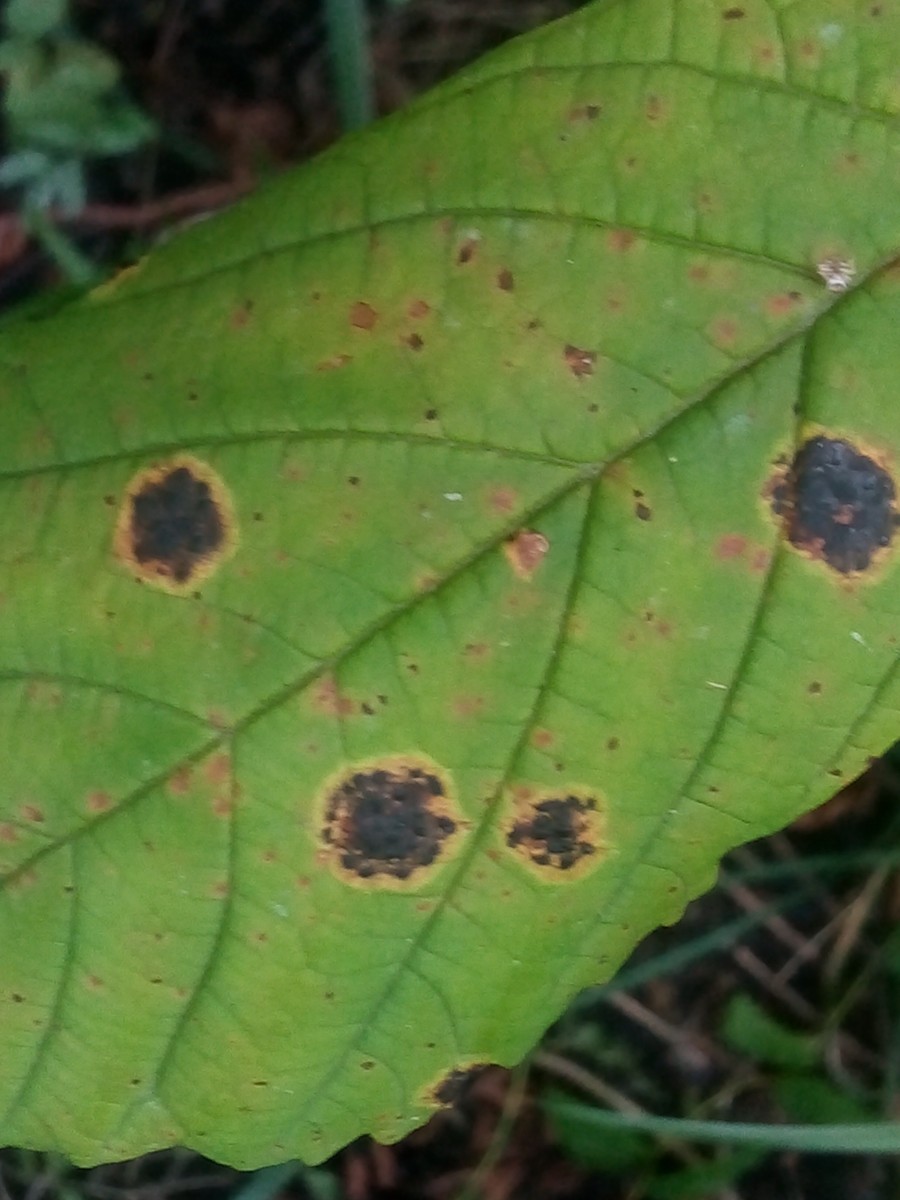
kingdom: Fungi
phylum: Ascomycota
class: Leotiomycetes
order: Rhytismatales
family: Rhytismataceae
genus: Rhytisma
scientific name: Rhytisma acerinum
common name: ahorn-rynkeplet
